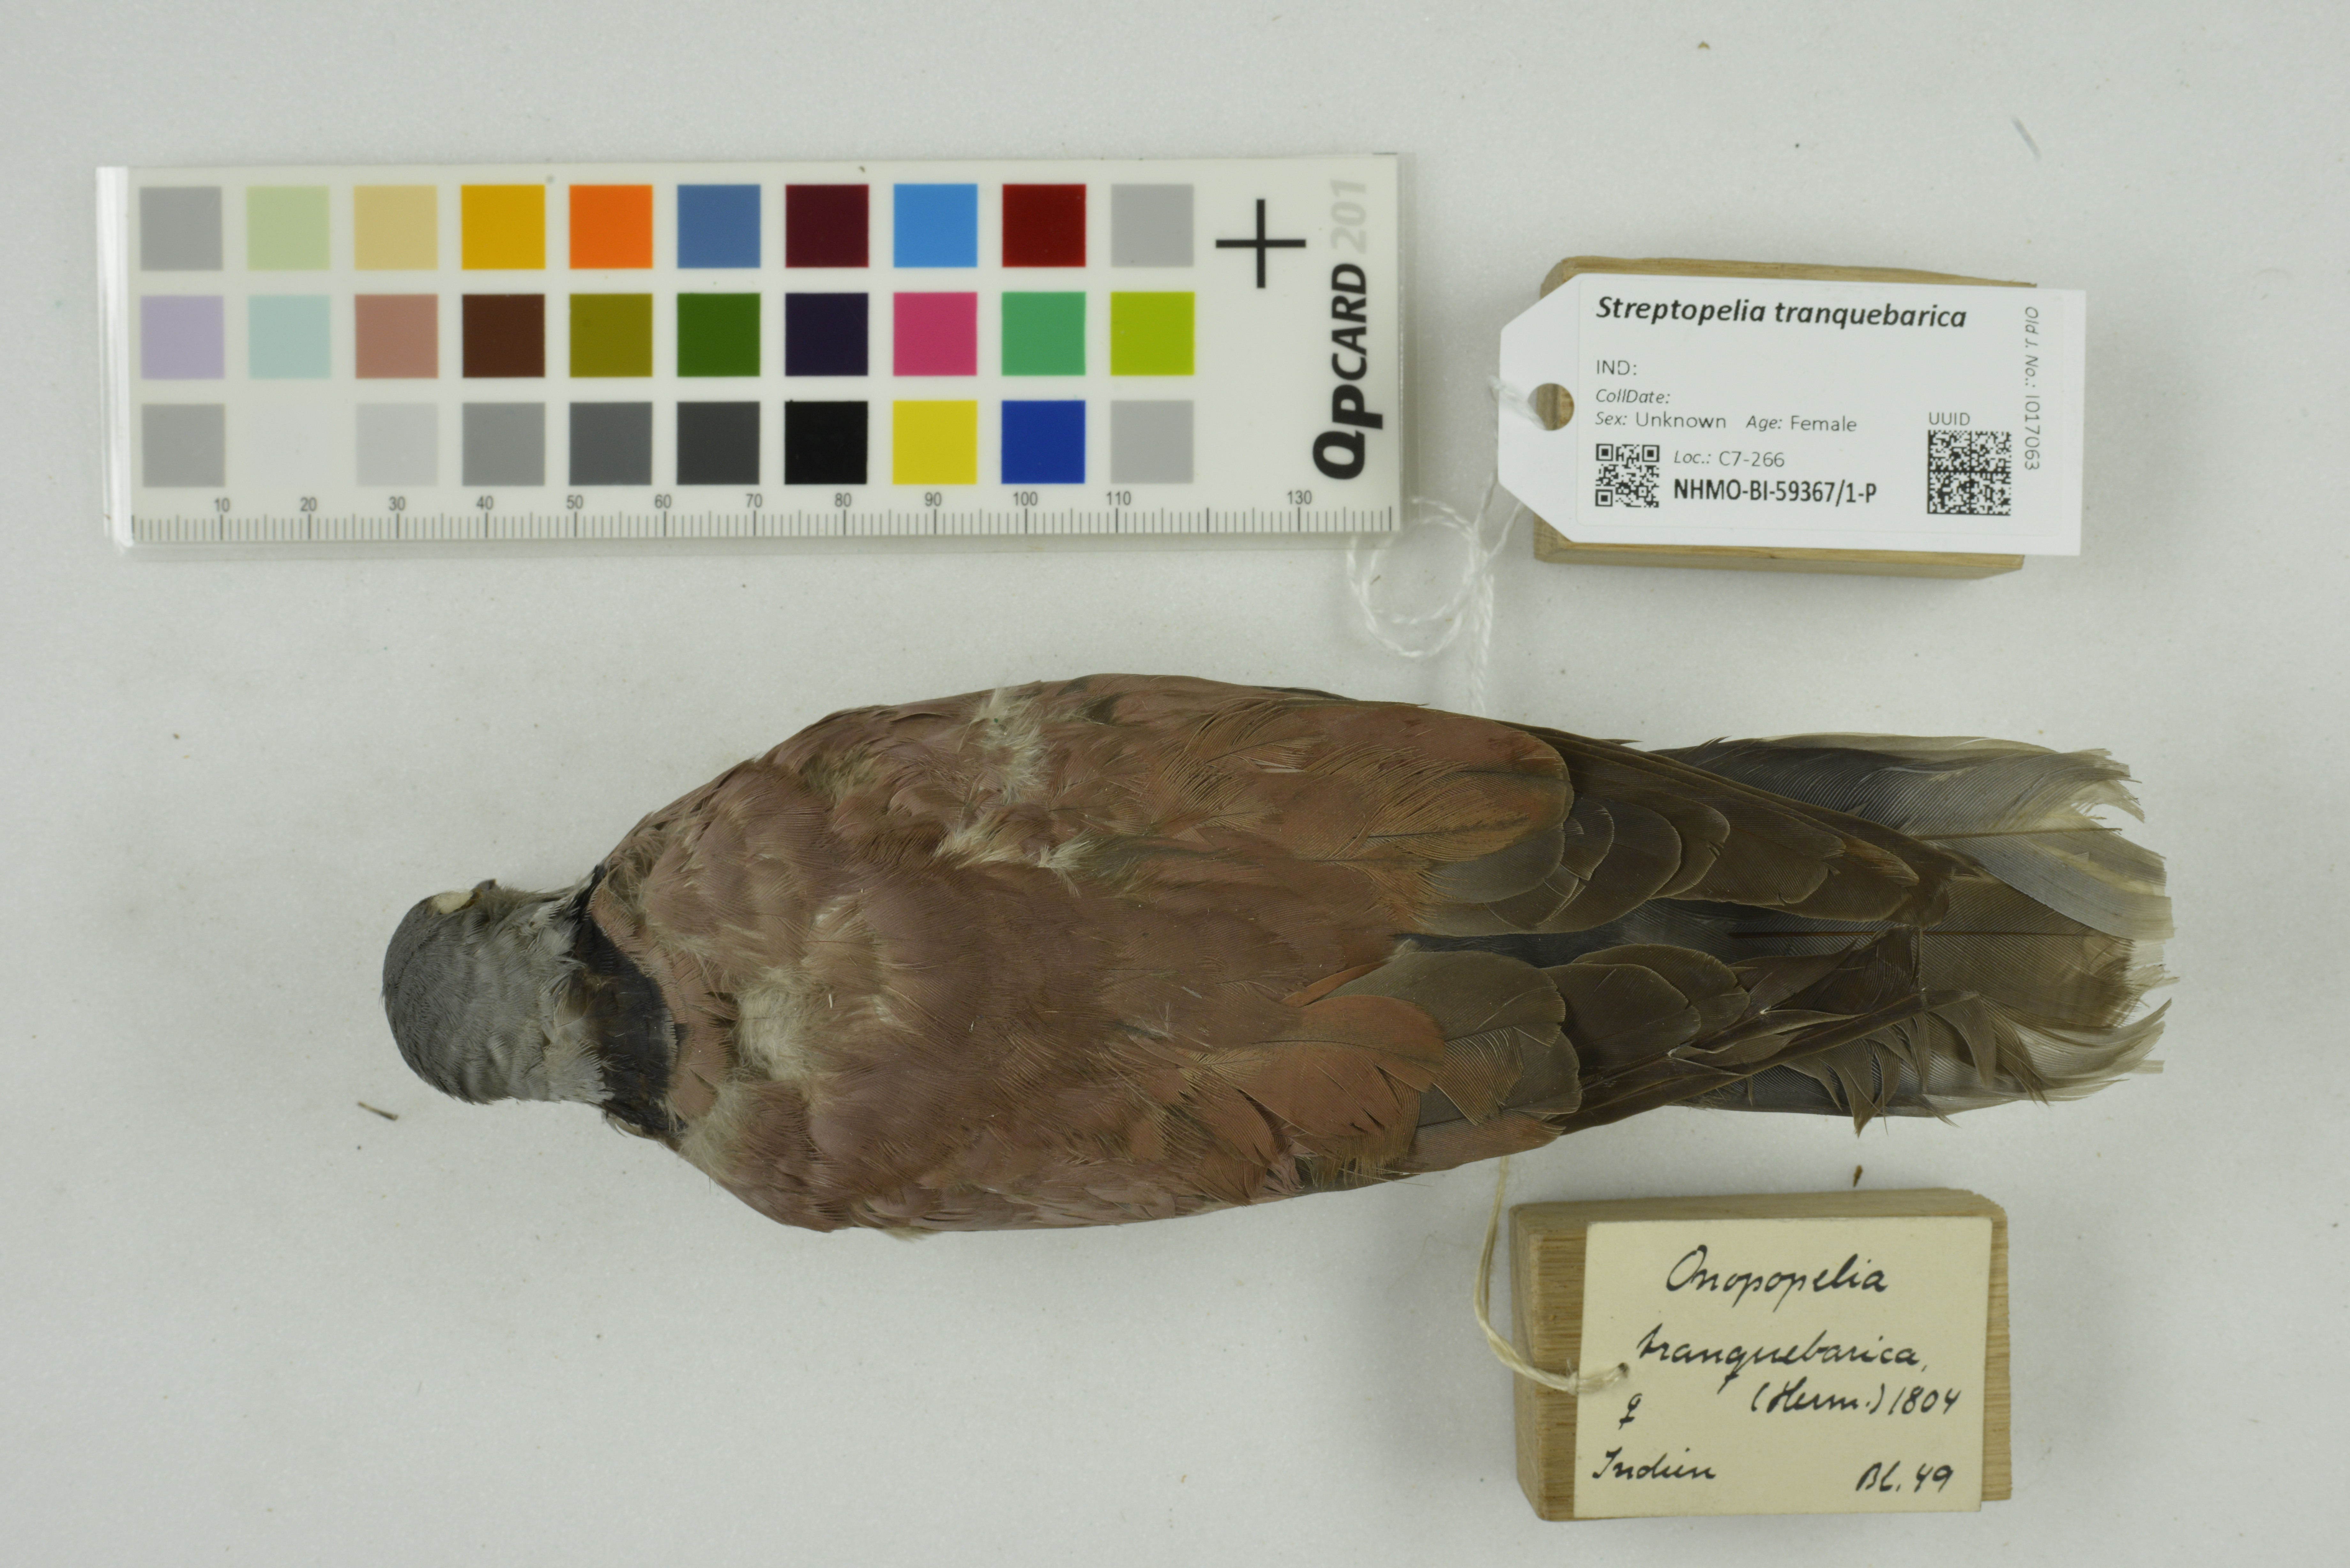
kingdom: Animalia
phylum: Chordata
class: Aves
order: Columbiformes
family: Columbidae
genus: Streptopelia
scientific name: Streptopelia tranquebarica
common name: Red turtle dove
